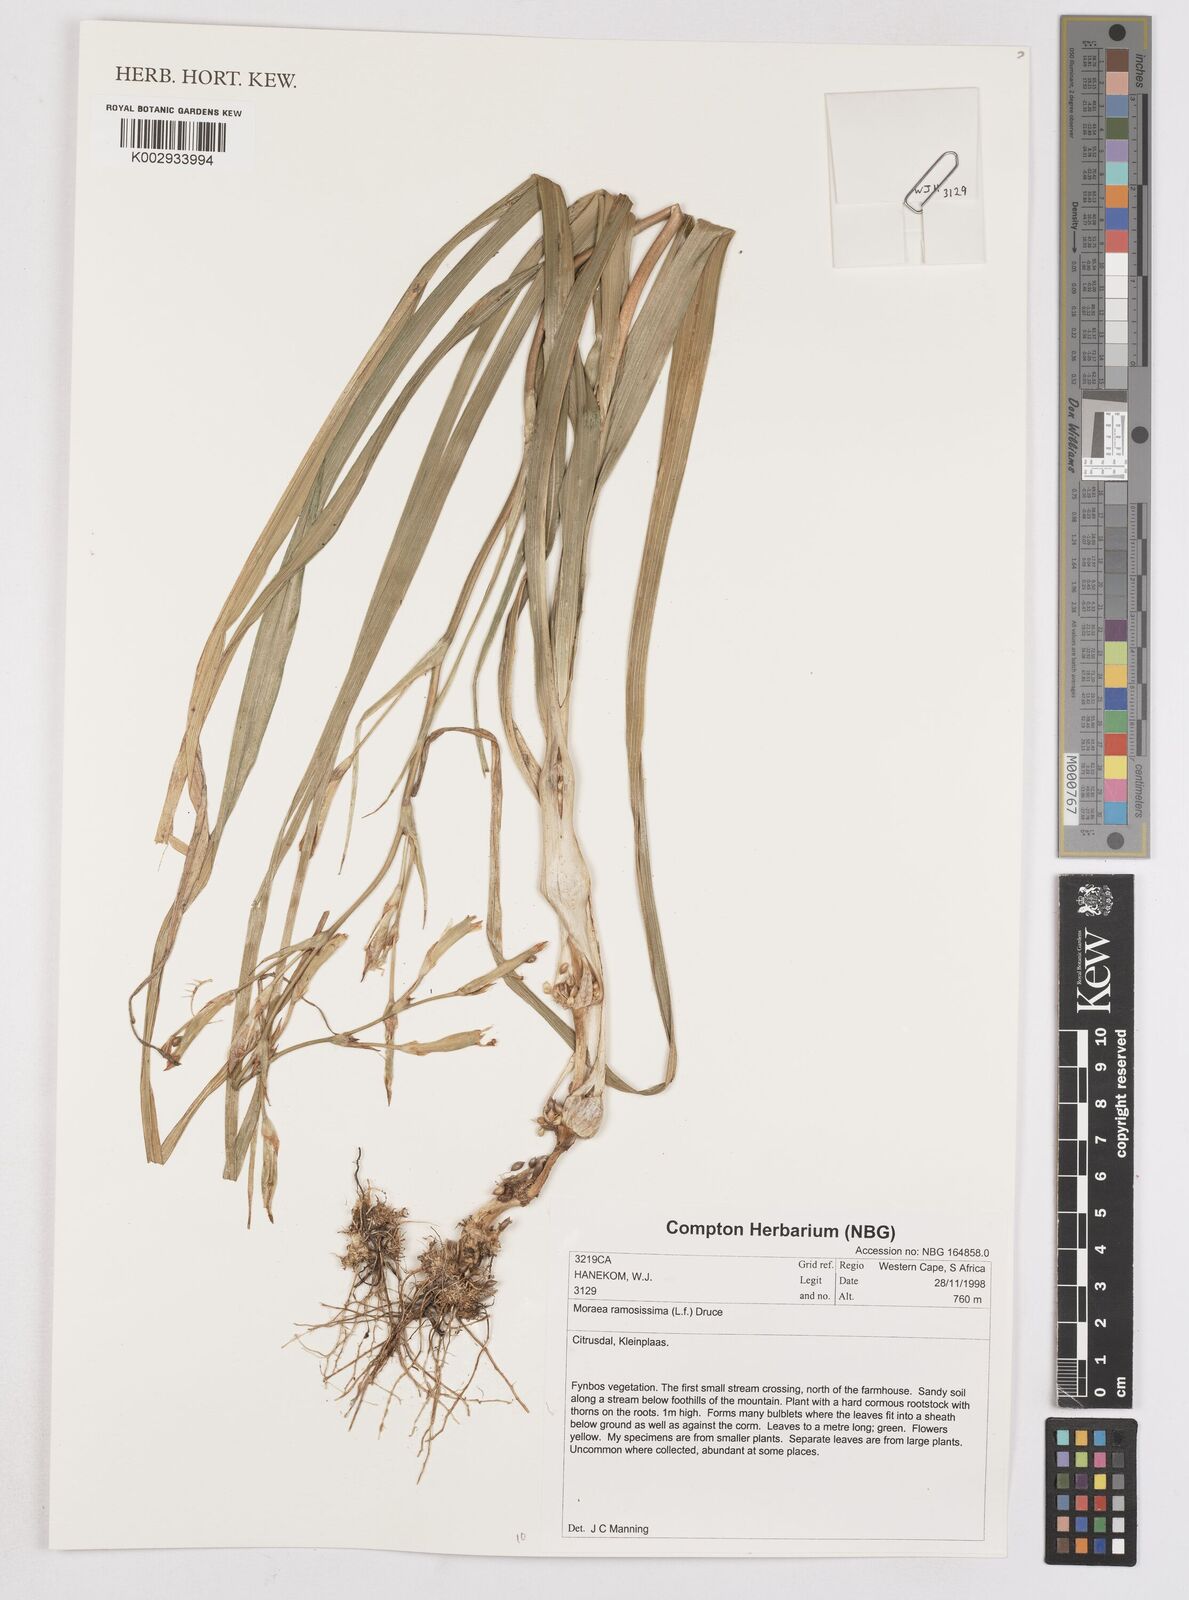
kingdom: Plantae
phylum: Tracheophyta
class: Liliopsida
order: Asparagales
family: Iridaceae
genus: Moraea
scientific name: Moraea ramosissima
